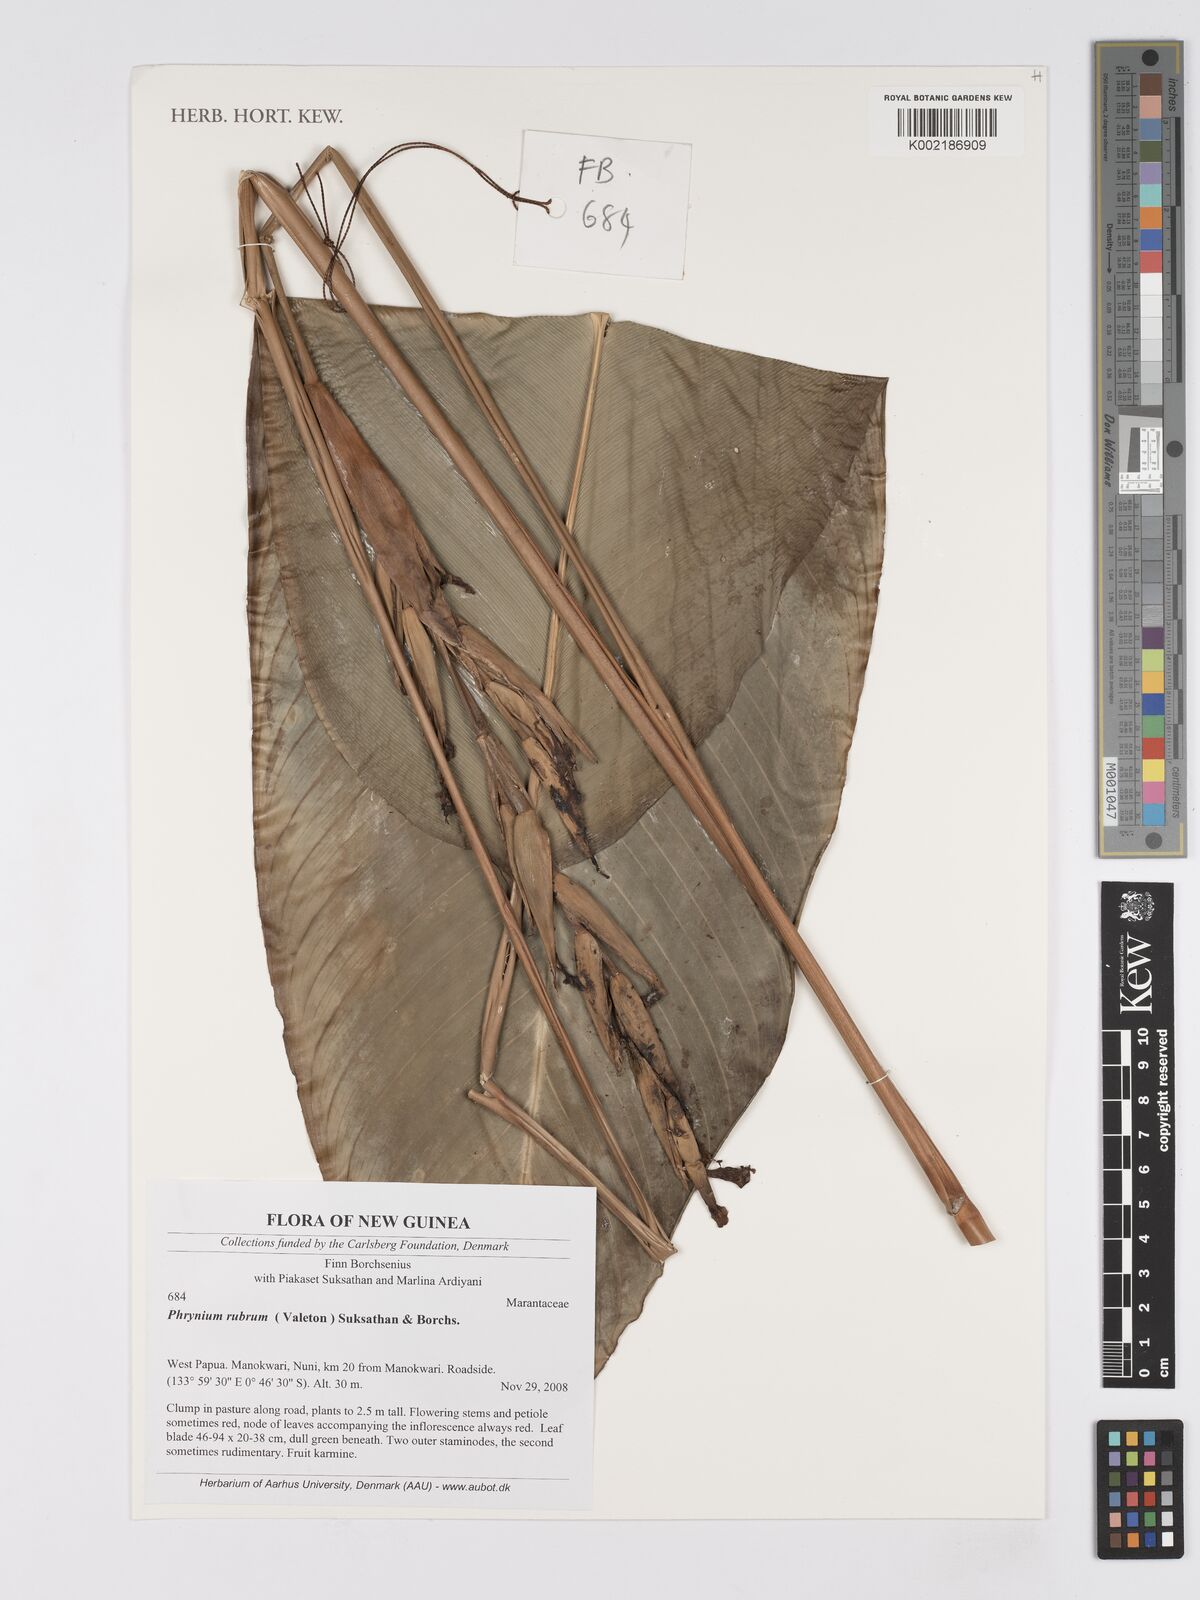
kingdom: Plantae
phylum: Tracheophyta
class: Liliopsida
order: Zingiberales
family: Marantaceae
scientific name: Marantaceae
